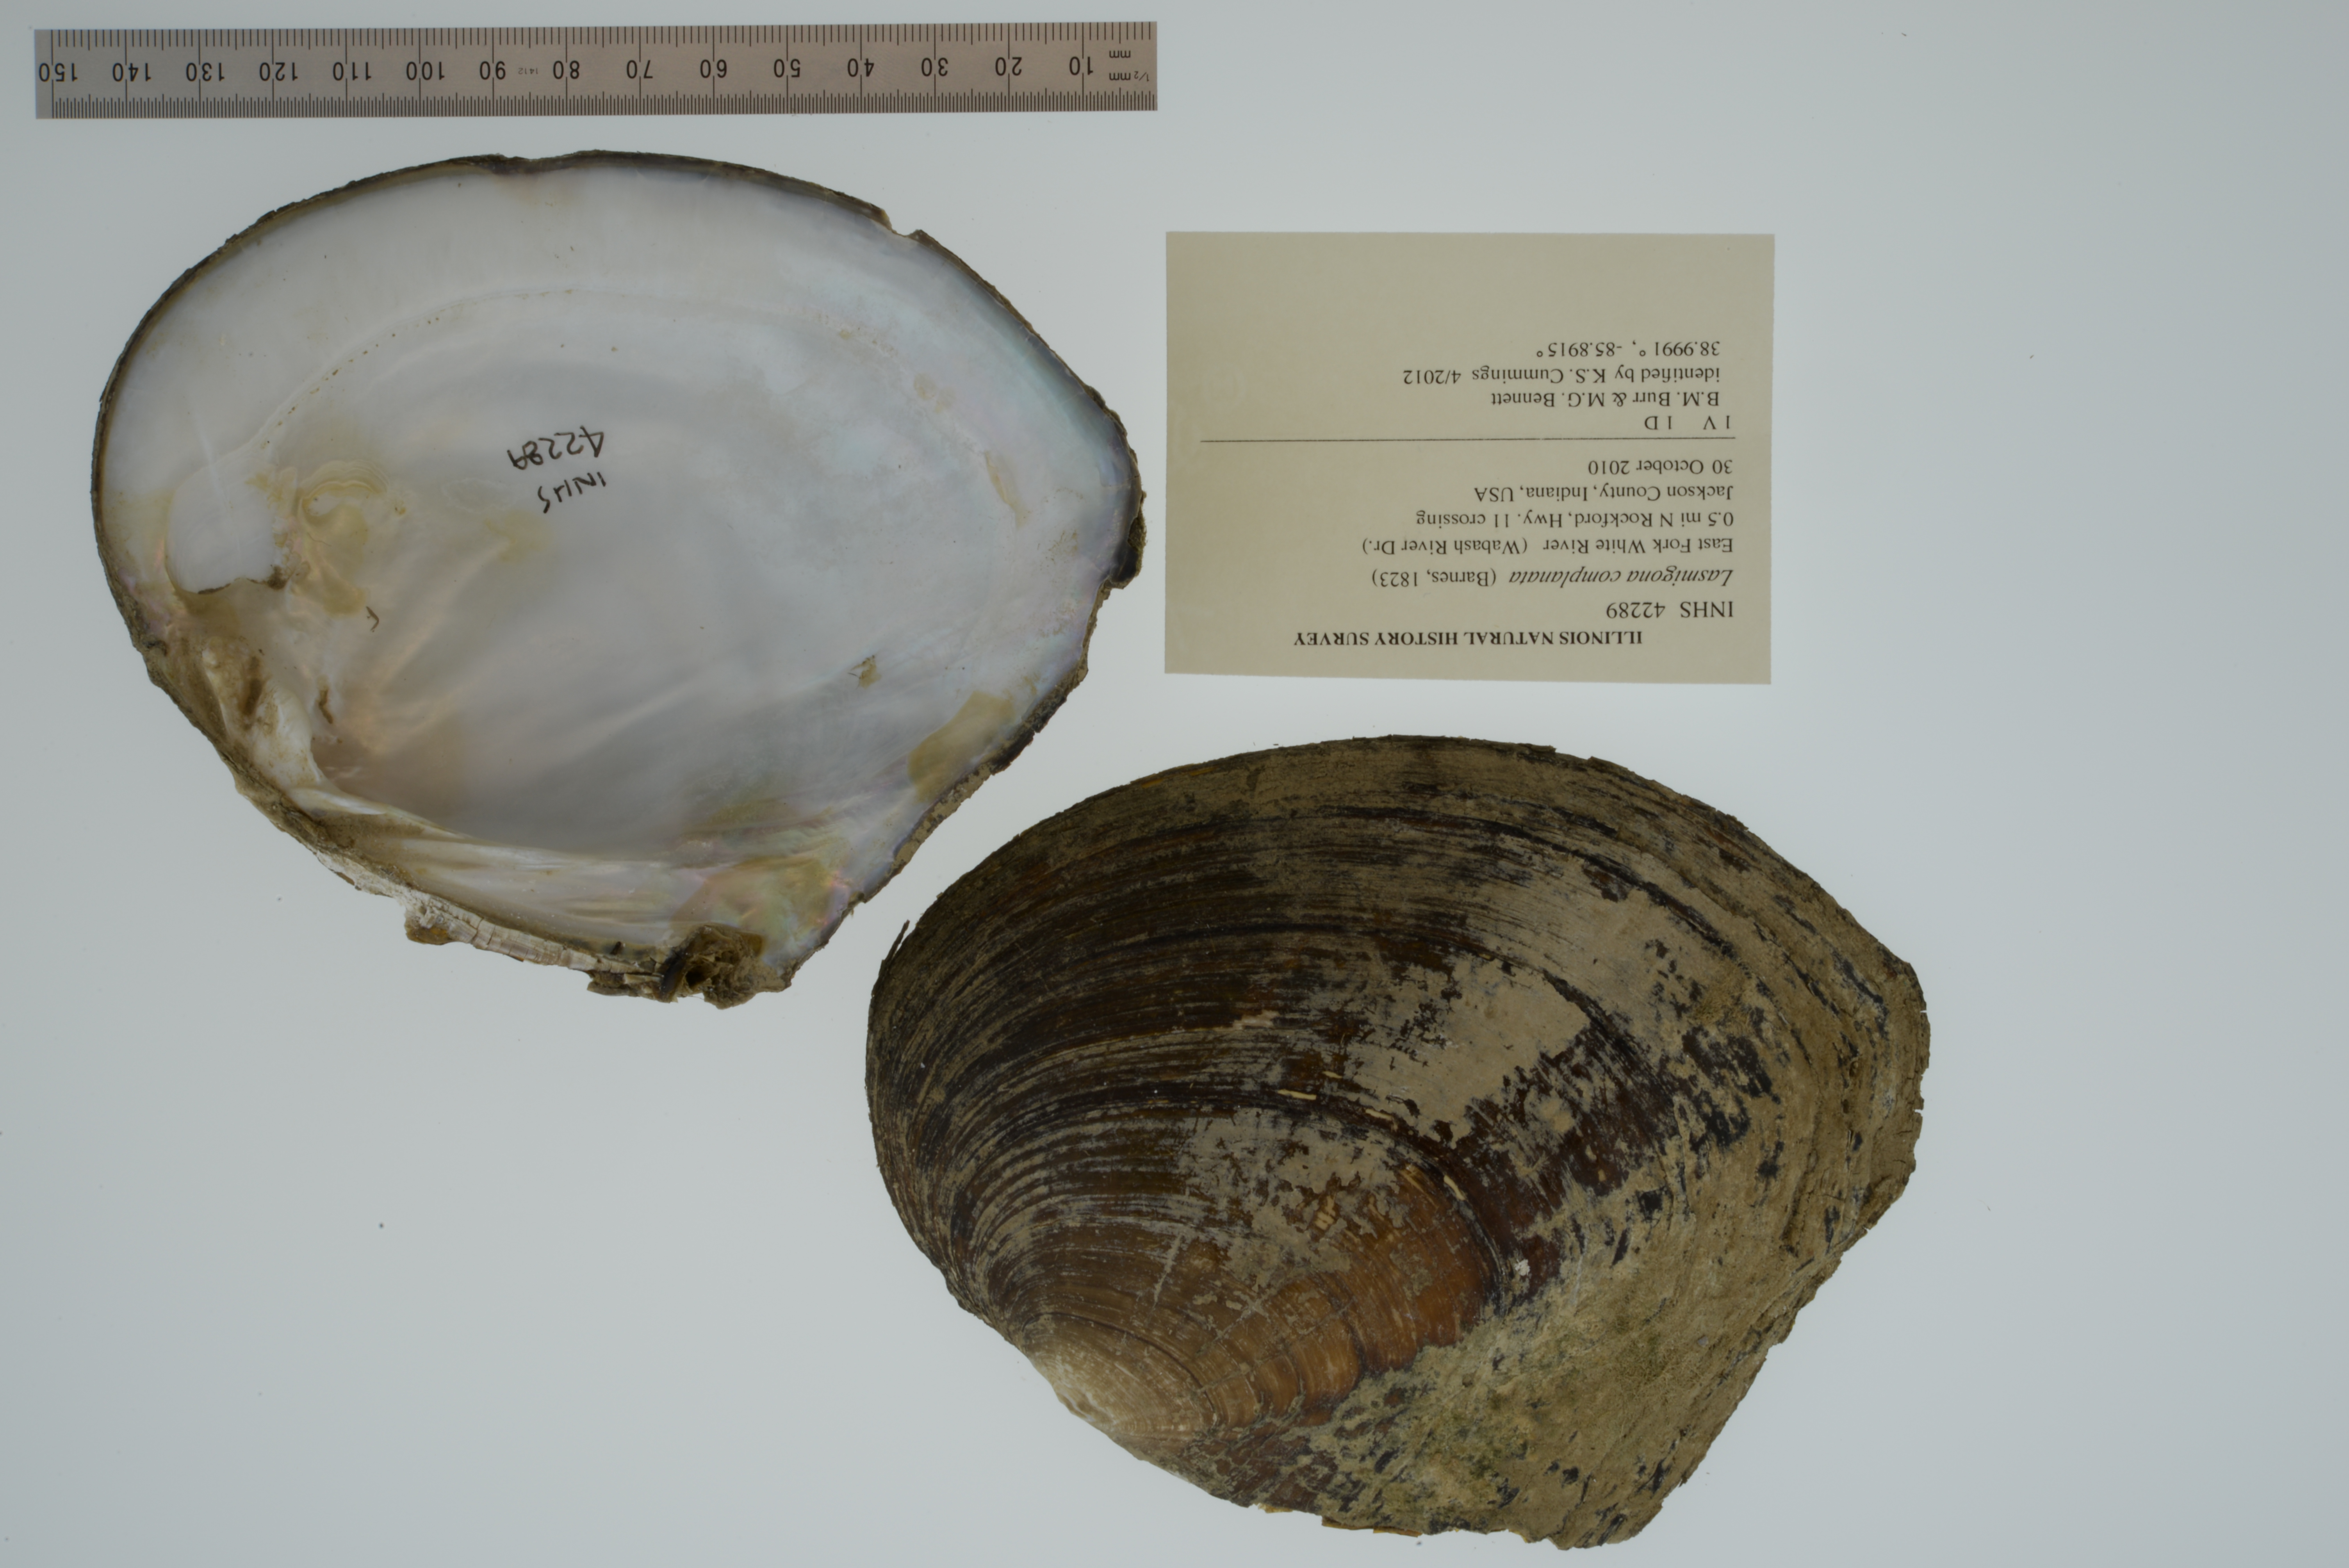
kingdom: Animalia
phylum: Mollusca
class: Bivalvia
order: Unionida
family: Unionidae
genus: Lasmigona
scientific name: Lasmigona complanata
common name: White heelsplitter
